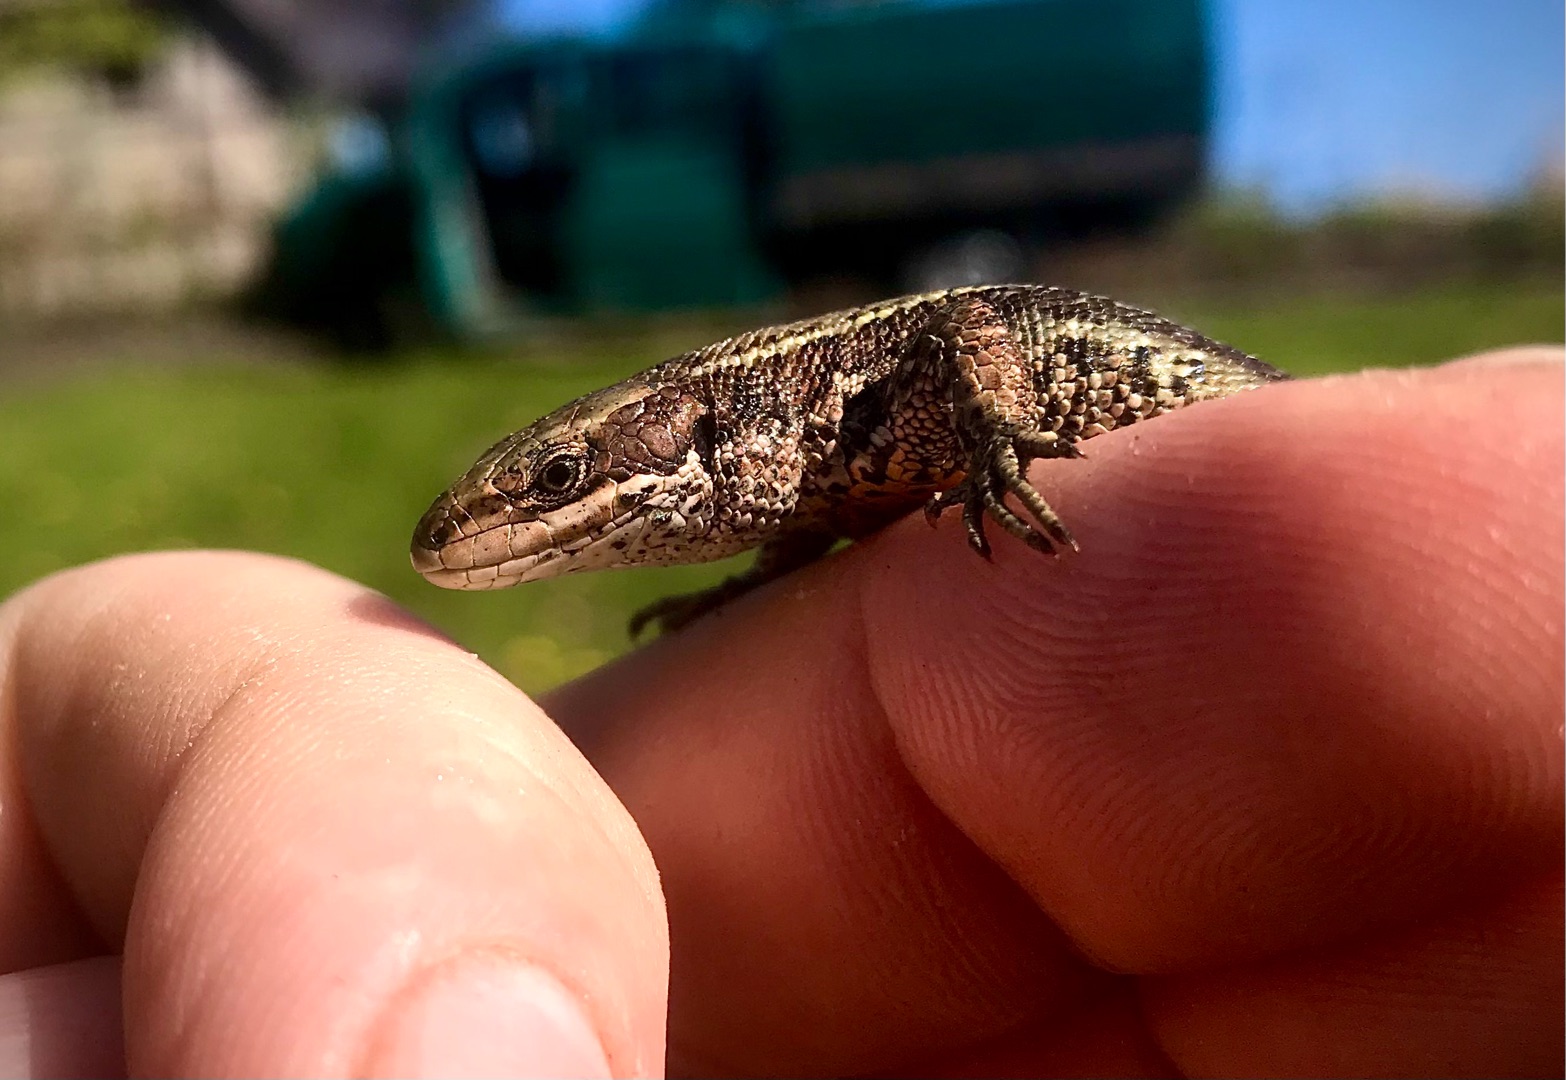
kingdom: Animalia
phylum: Chordata
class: Squamata
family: Lacertidae
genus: Zootoca
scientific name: Zootoca vivipara
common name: Skovfirben
